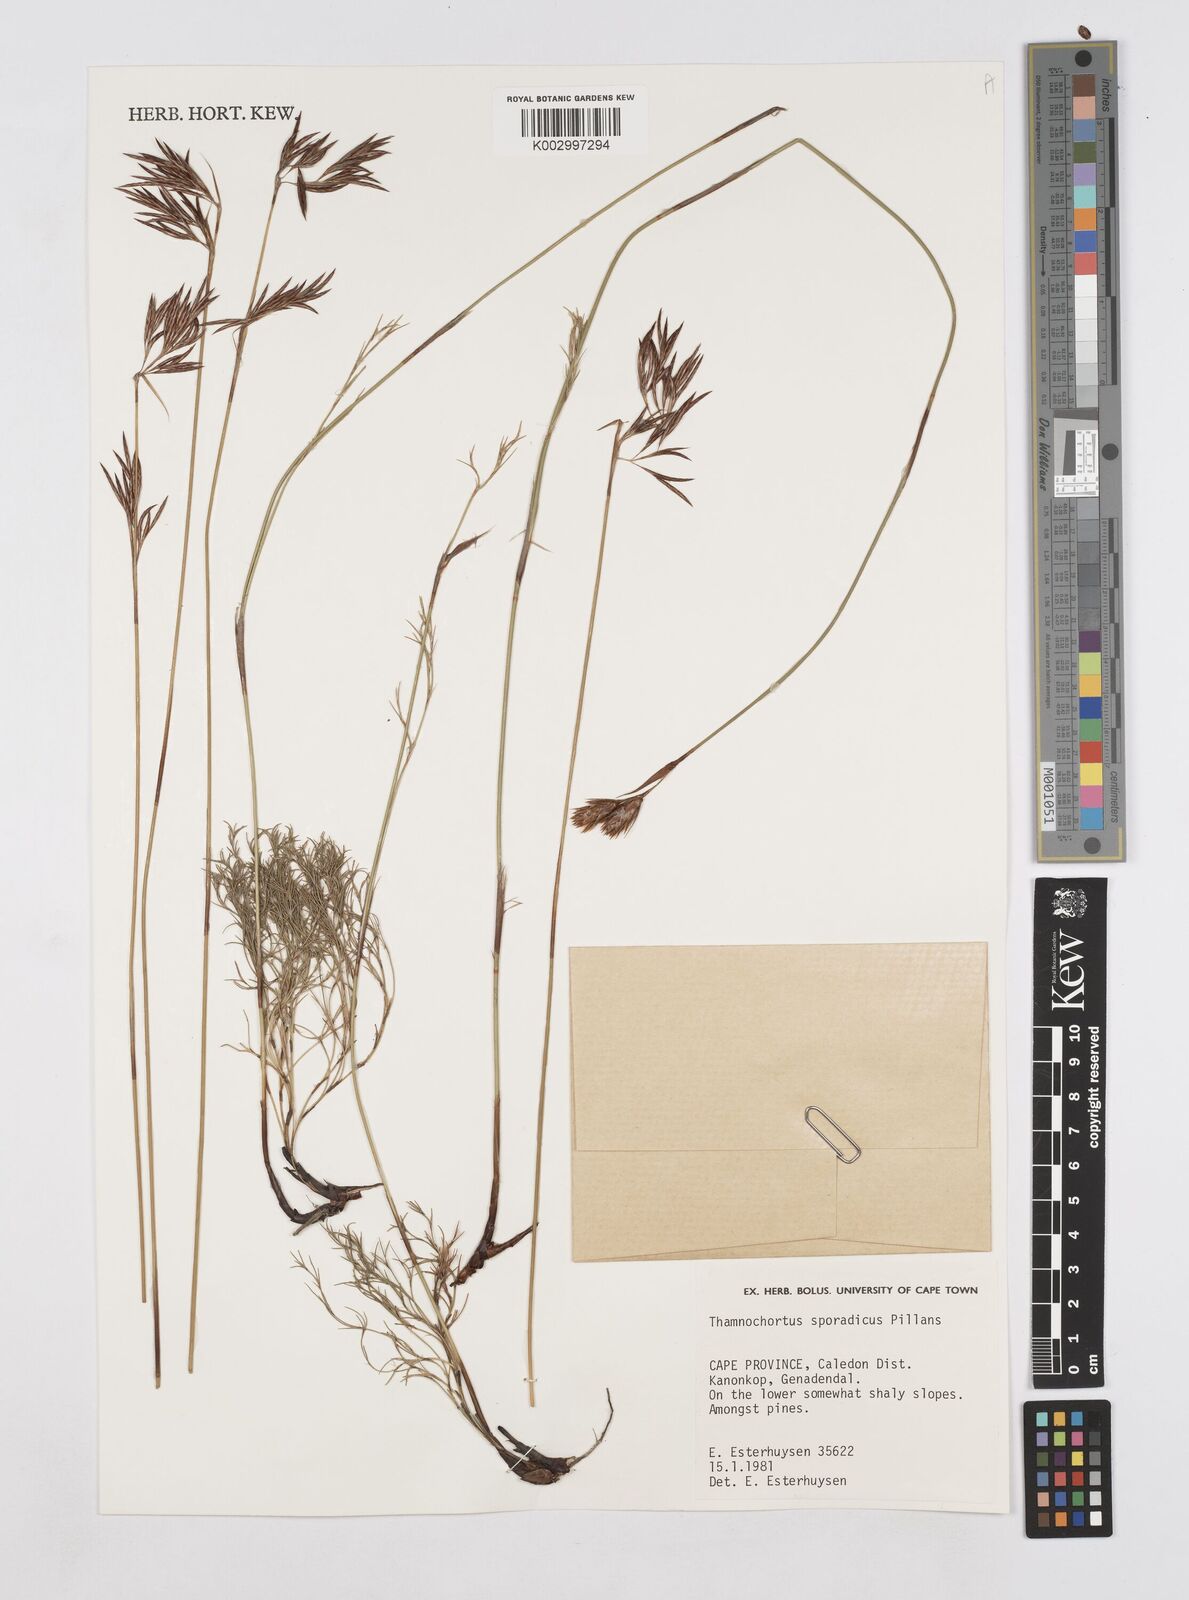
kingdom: Plantae
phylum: Tracheophyta
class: Liliopsida
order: Poales
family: Restionaceae
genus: Thamnochortus
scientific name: Thamnochortus sporadicus
